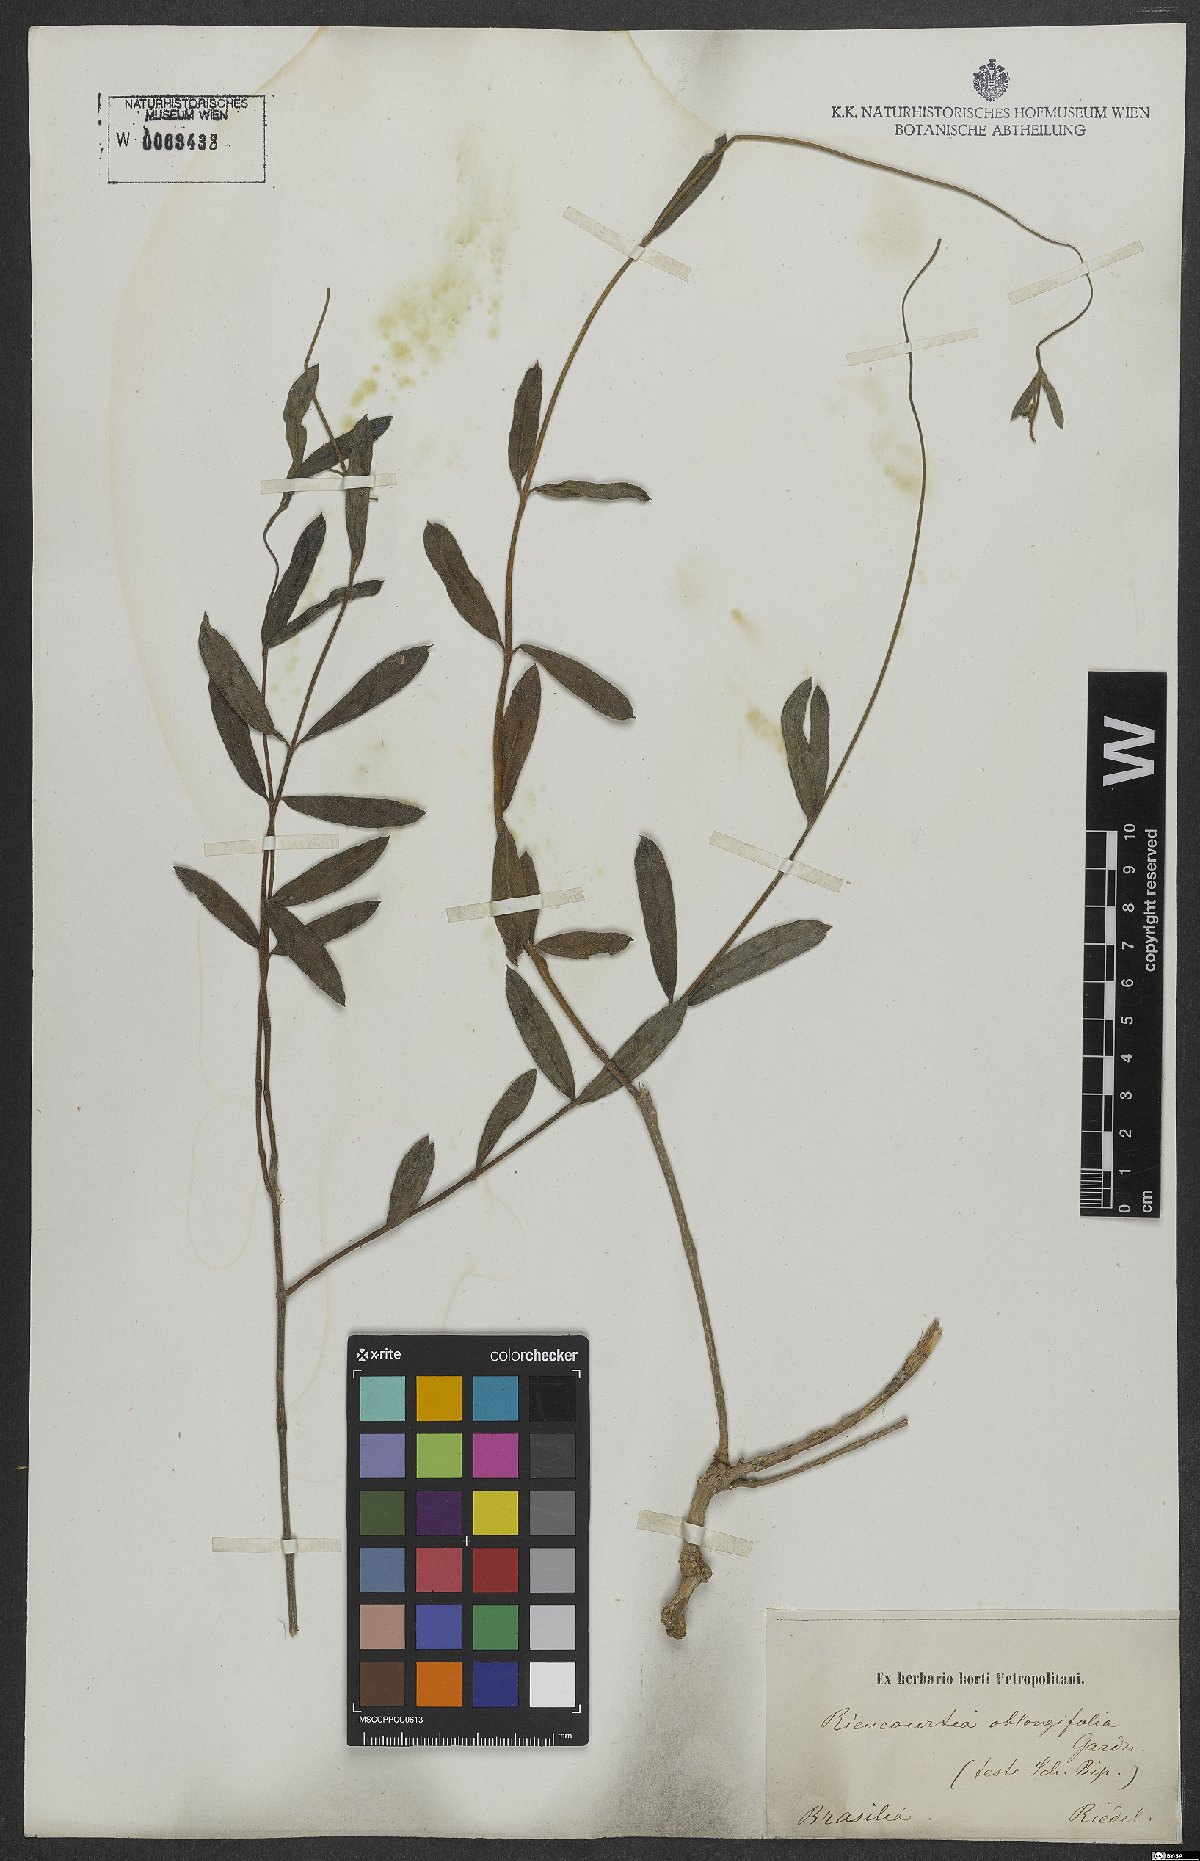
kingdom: Plantae
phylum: Tracheophyta
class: Magnoliopsida
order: Asterales
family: Asteraceae
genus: Riencourtia
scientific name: Riencourtia oblongifolia
